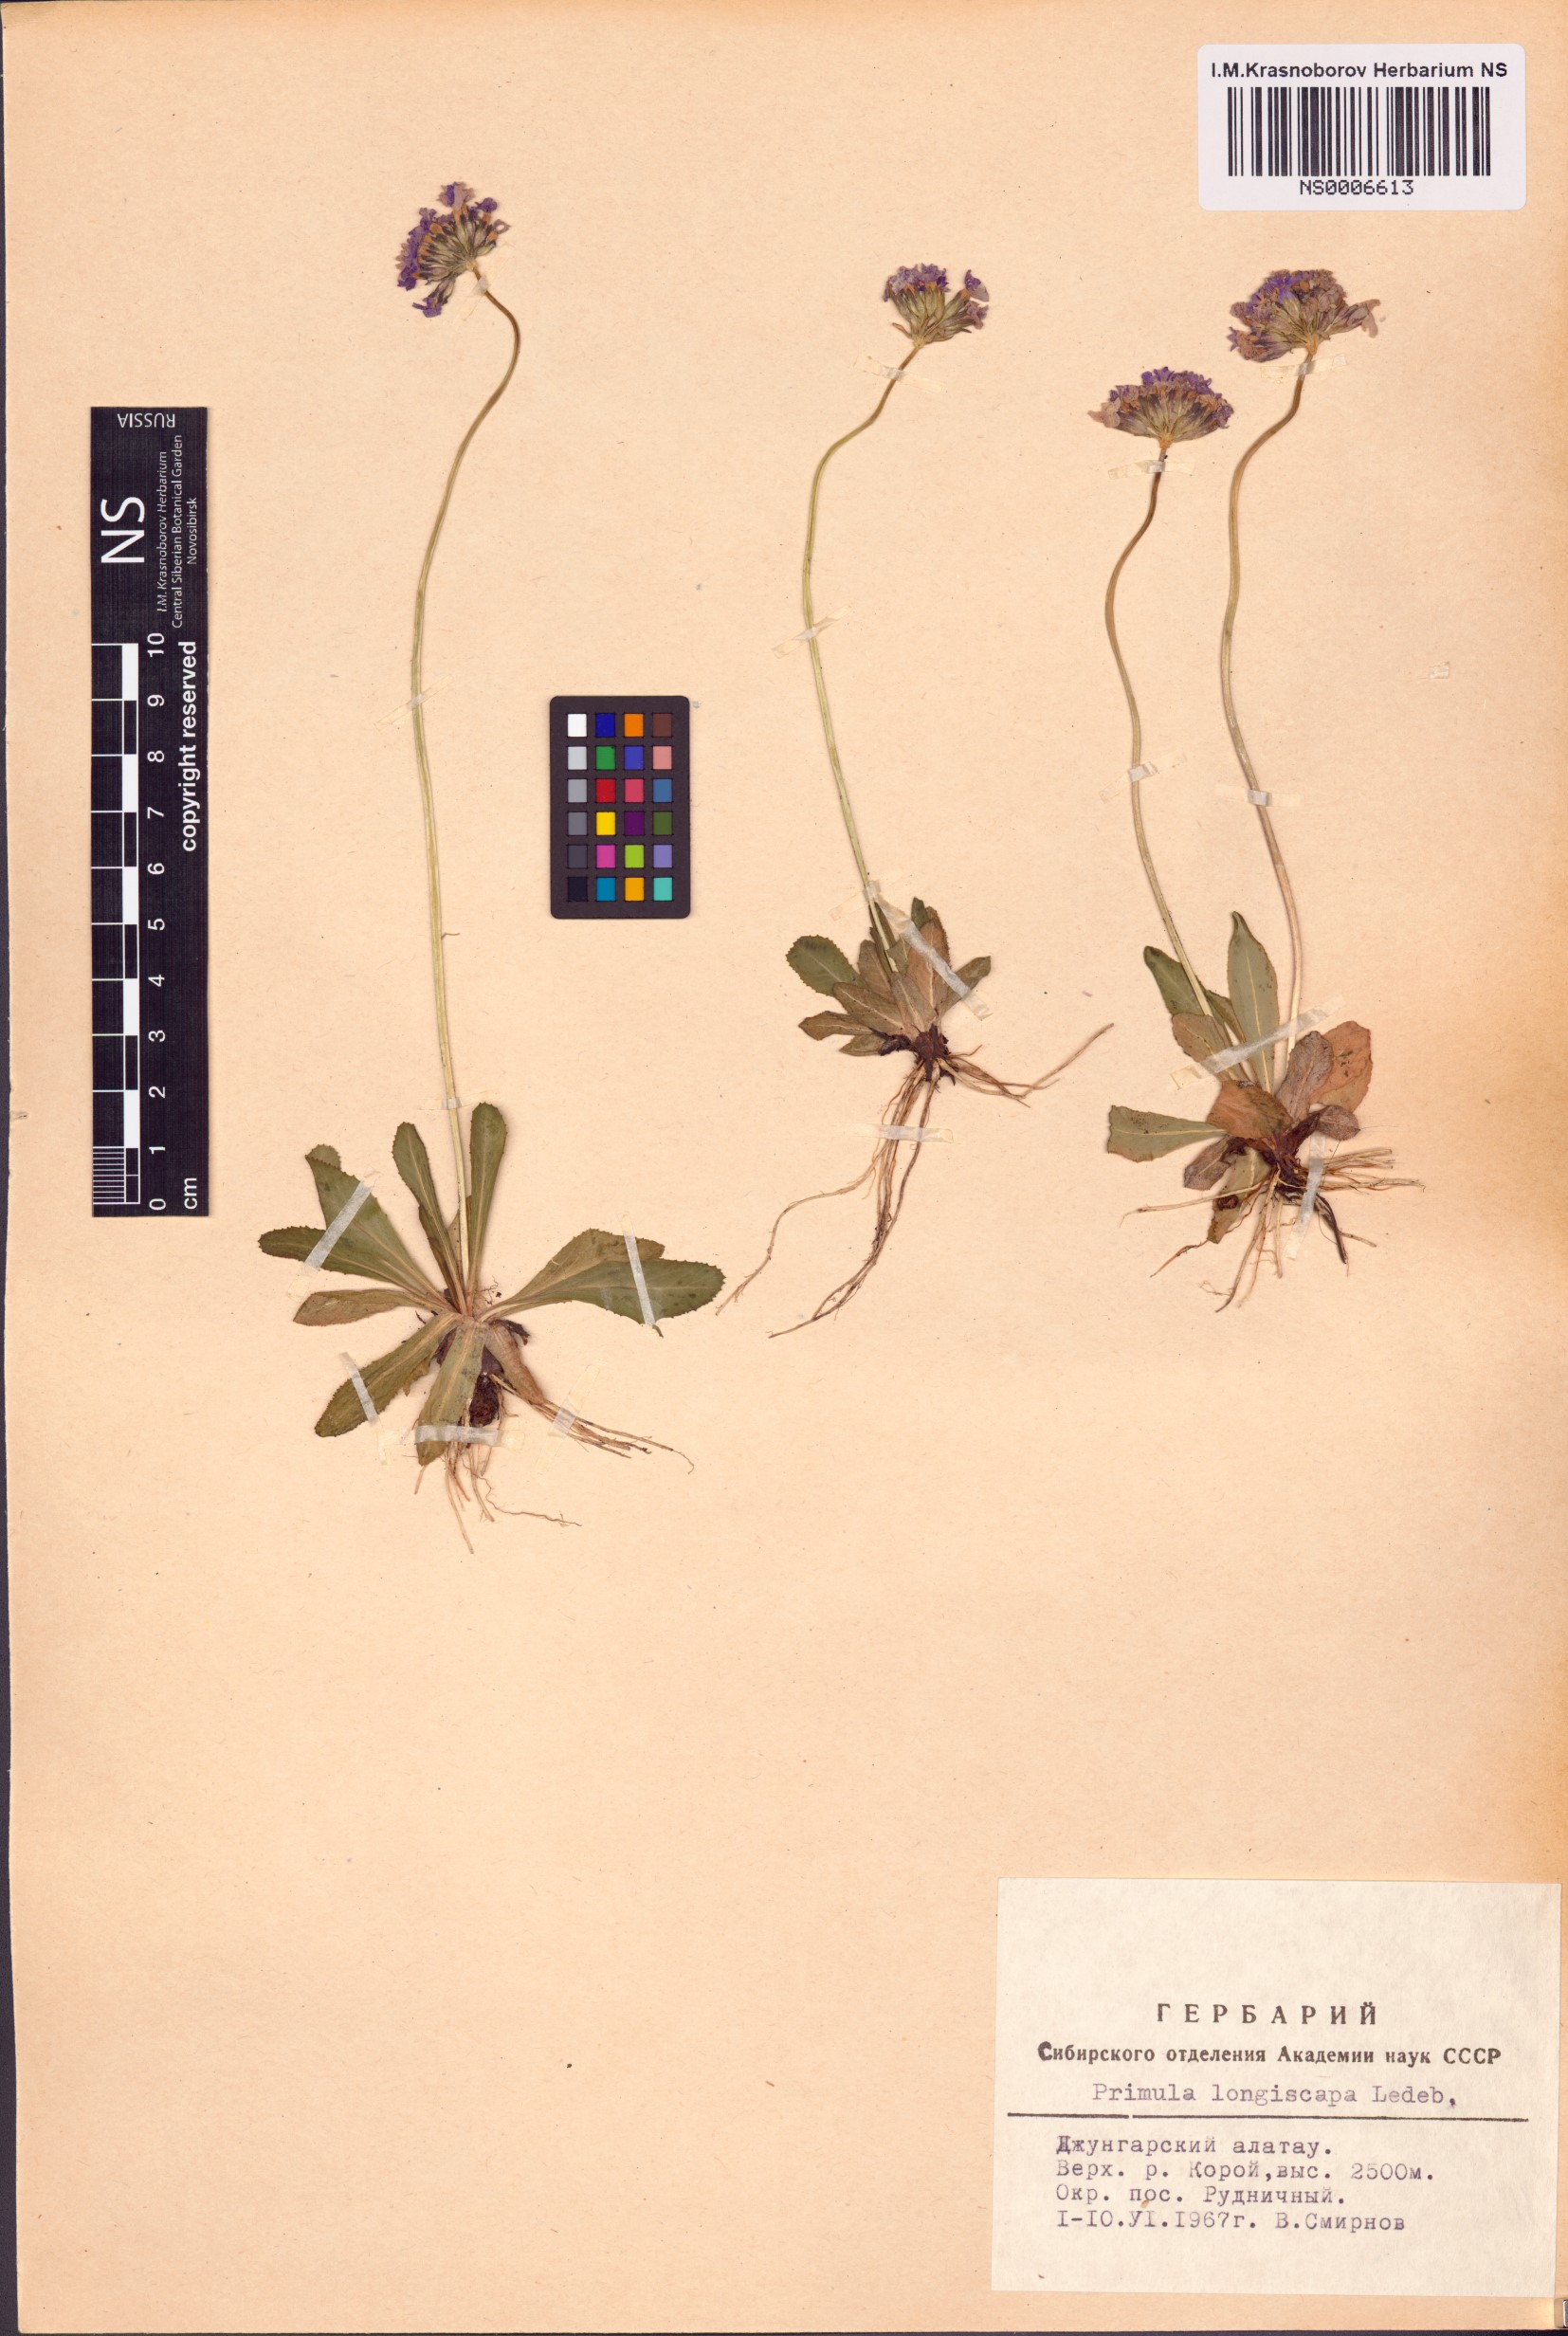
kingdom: Plantae
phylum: Tracheophyta
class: Magnoliopsida
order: Ericales
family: Primulaceae
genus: Primula
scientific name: Primula longiscapa
